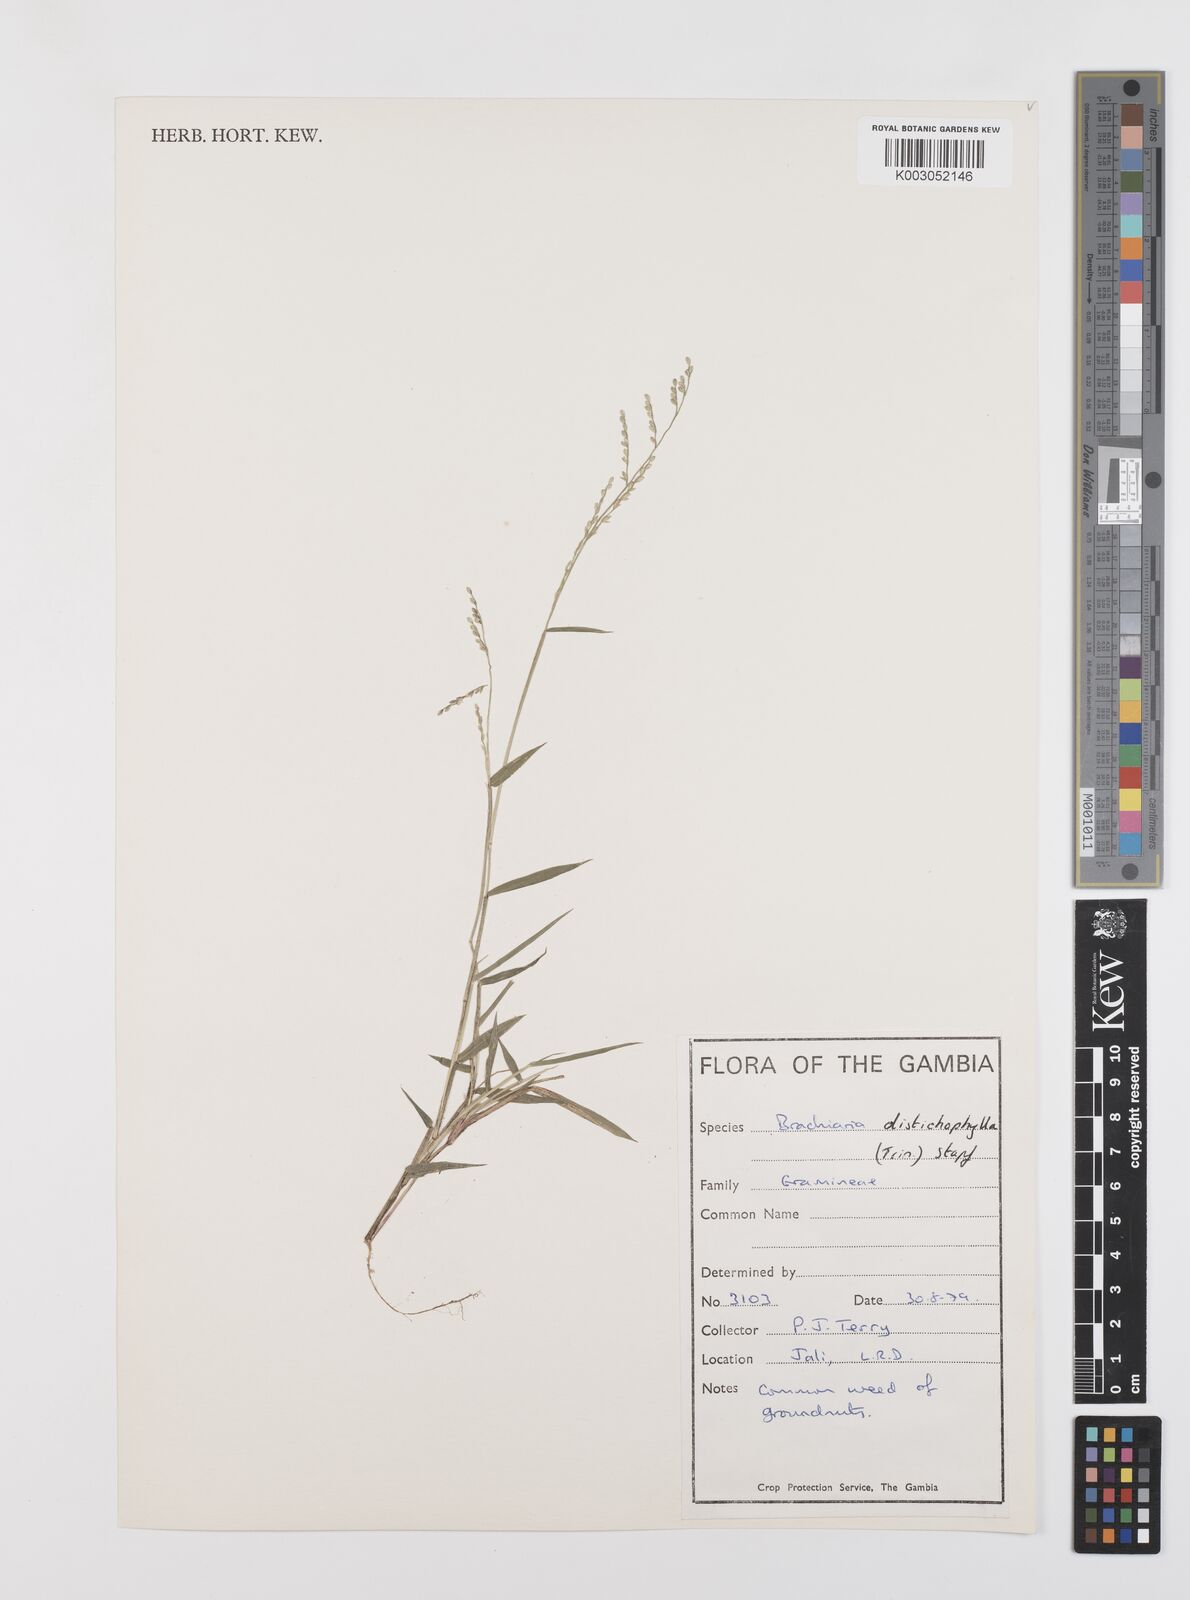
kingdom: Plantae
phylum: Tracheophyta
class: Liliopsida
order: Poales
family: Poaceae
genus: Urochloa
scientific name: Urochloa villosa
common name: Hairy signalgrass
